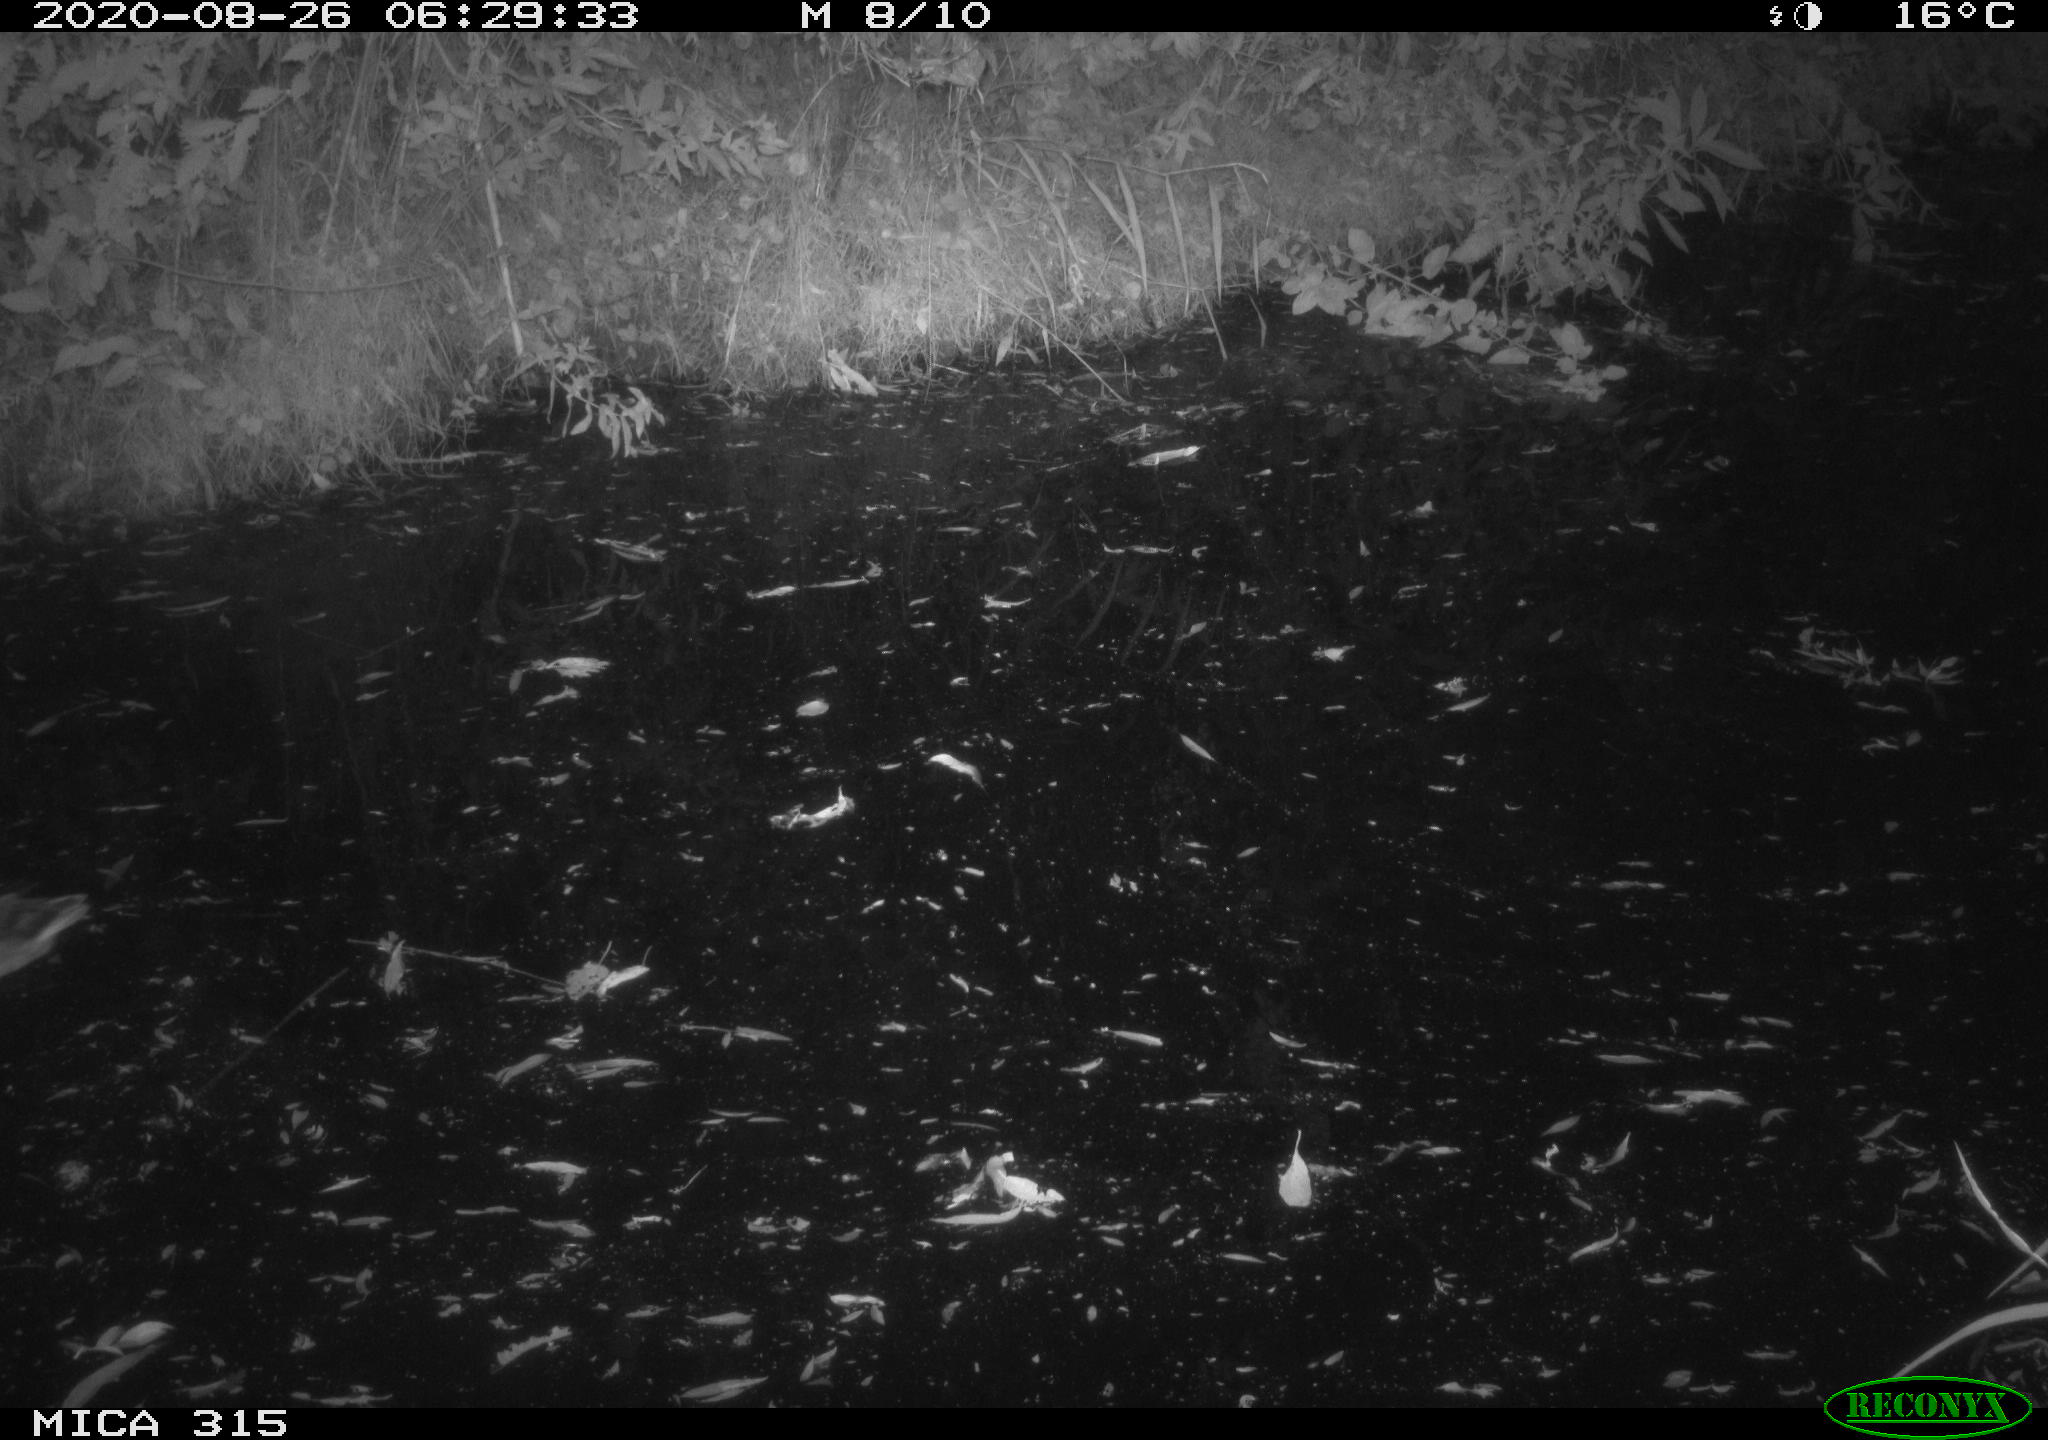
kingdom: Animalia
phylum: Chordata
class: Aves
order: Anseriformes
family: Anatidae
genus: Anas
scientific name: Anas platyrhynchos
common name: Mallard
